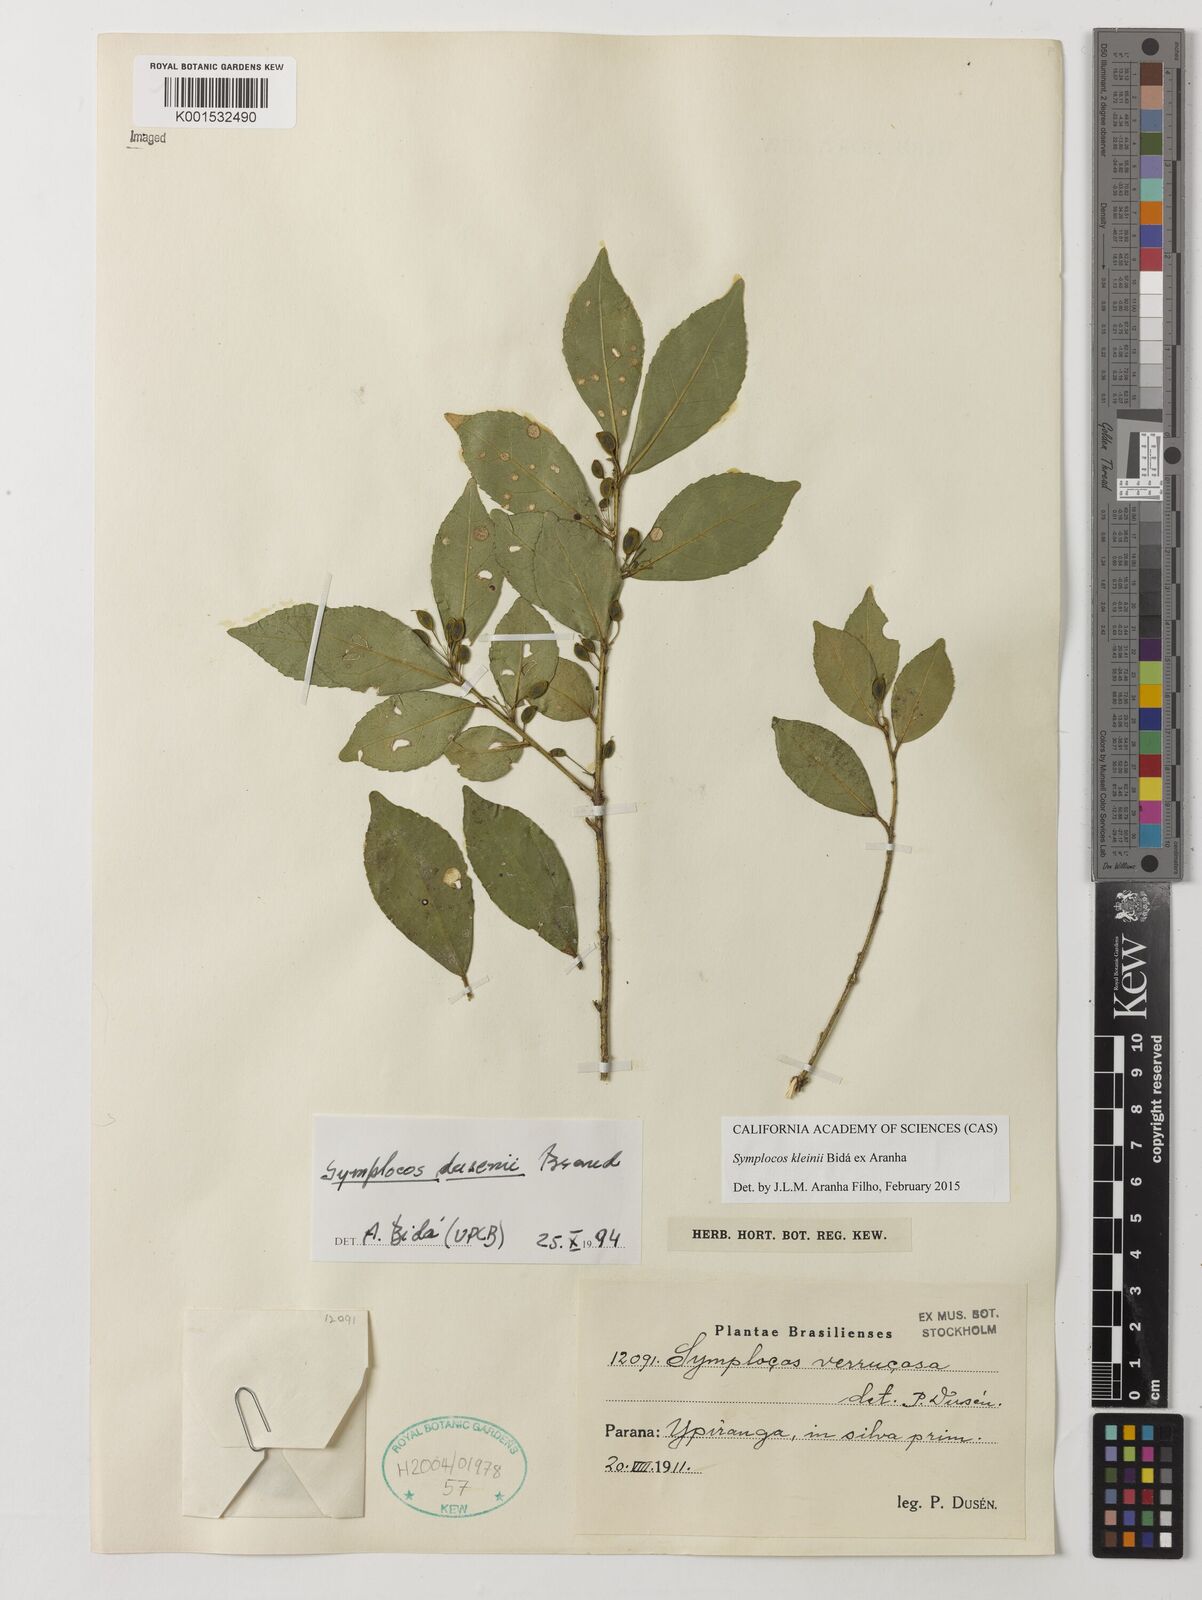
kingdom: Plantae
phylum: Tracheophyta
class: Magnoliopsida
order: Ericales
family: Symplocaceae
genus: Symplocos
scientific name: Symplocos kleinii
